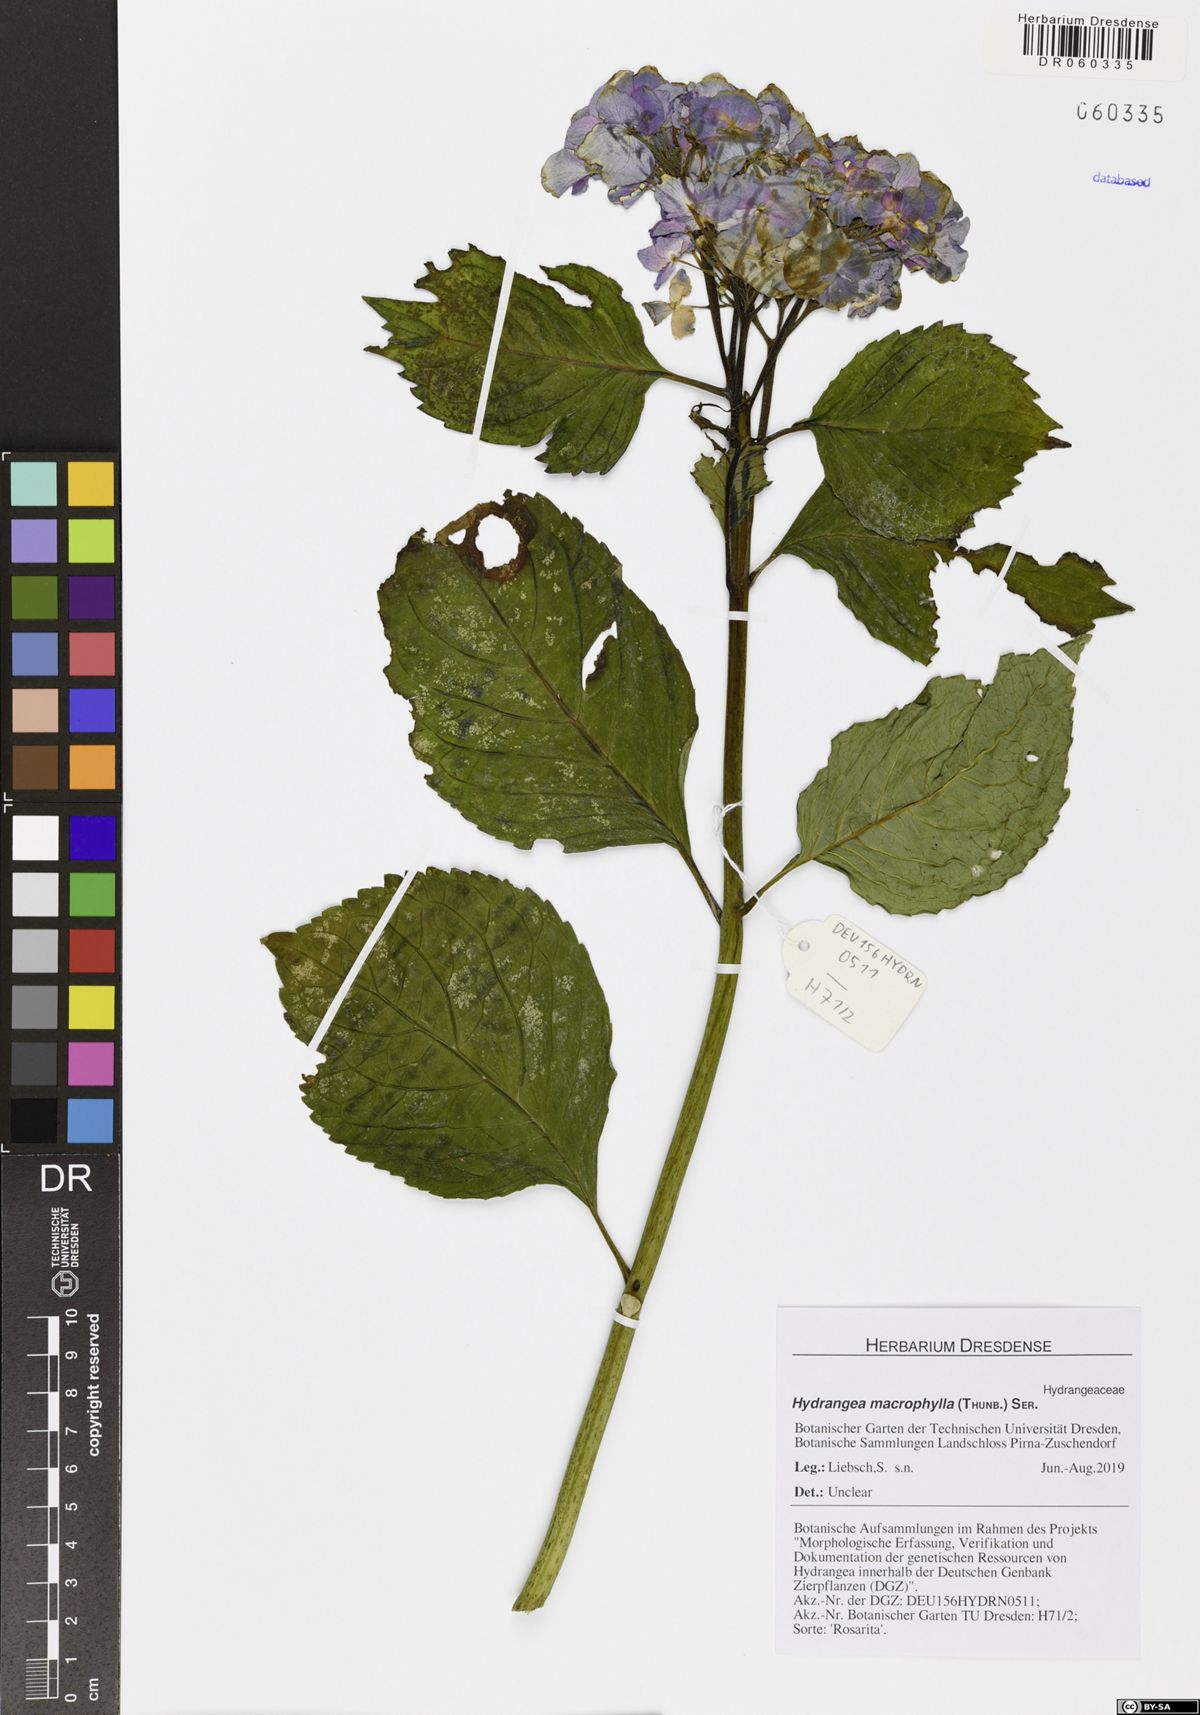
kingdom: Plantae
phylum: Tracheophyta
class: Magnoliopsida
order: Cornales
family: Hydrangeaceae
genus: Hydrangea
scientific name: Hydrangea macrophylla
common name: Hydrangea
